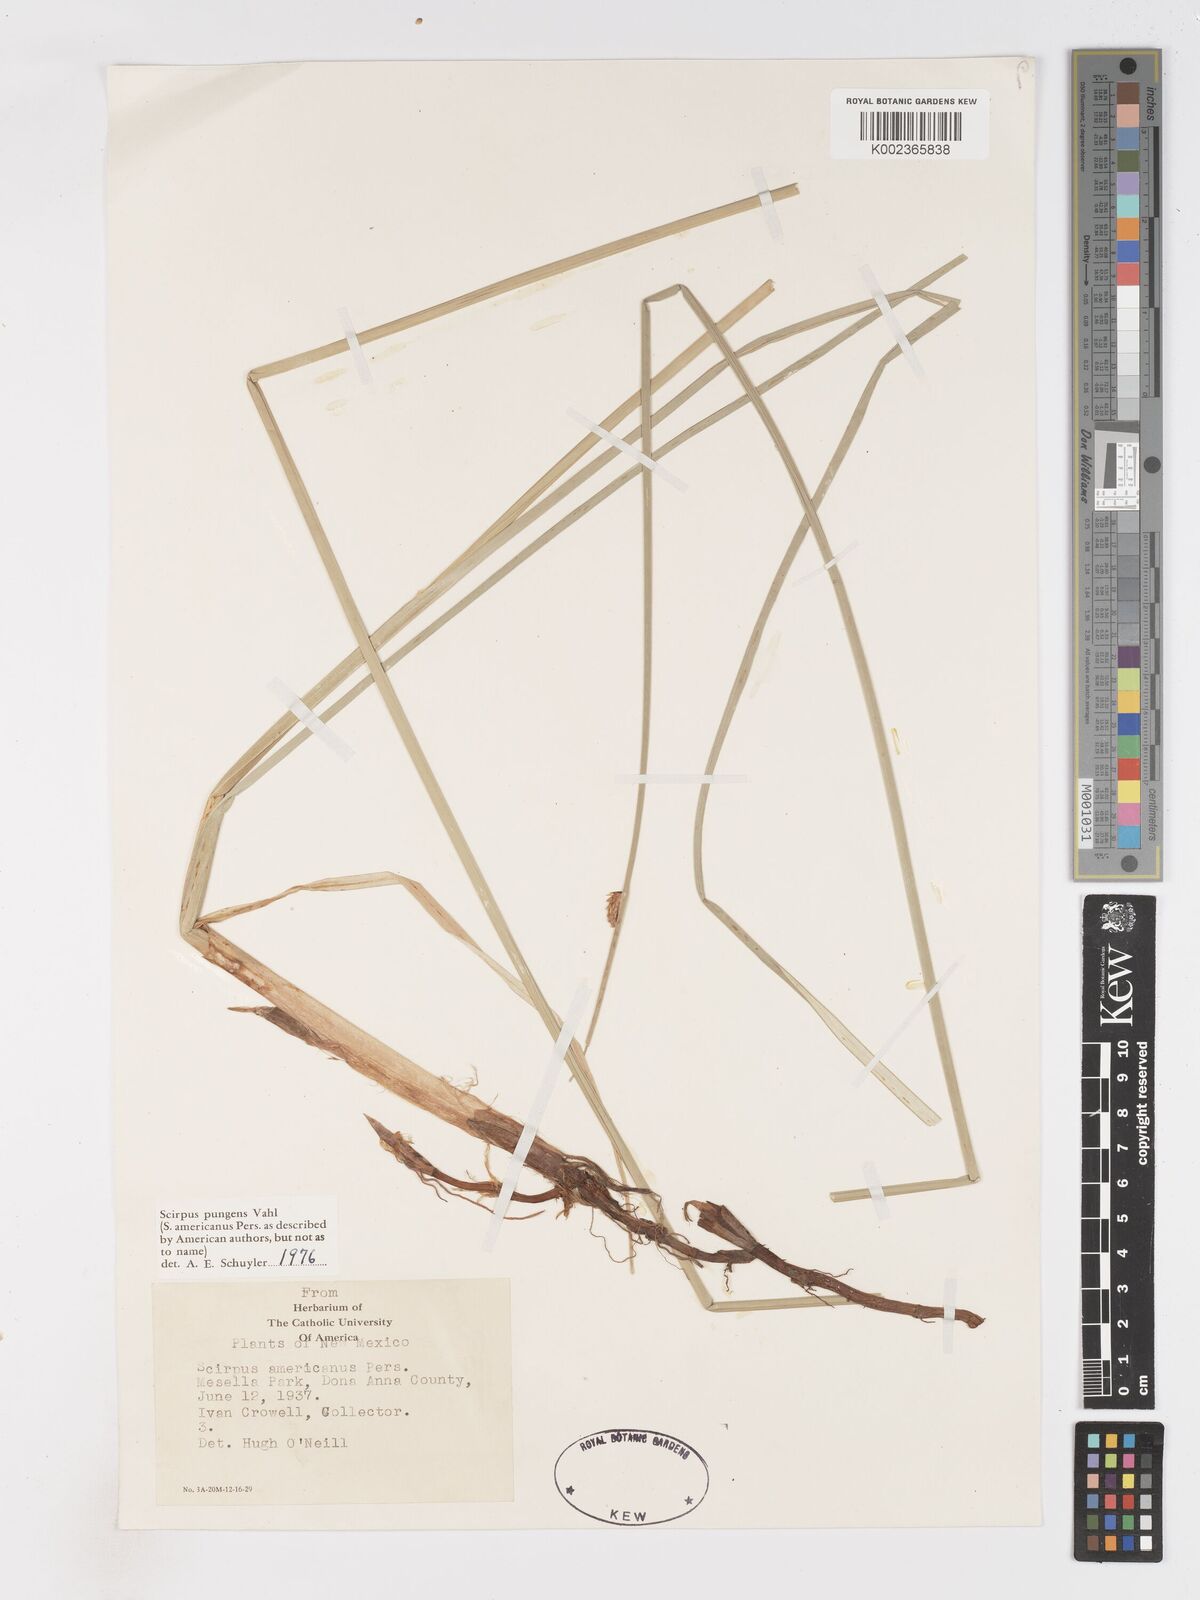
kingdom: Plantae
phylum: Tracheophyta
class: Liliopsida
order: Poales
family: Cyperaceae
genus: Schoenoplectus
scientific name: Schoenoplectus pungens
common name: Sharp club-rush
